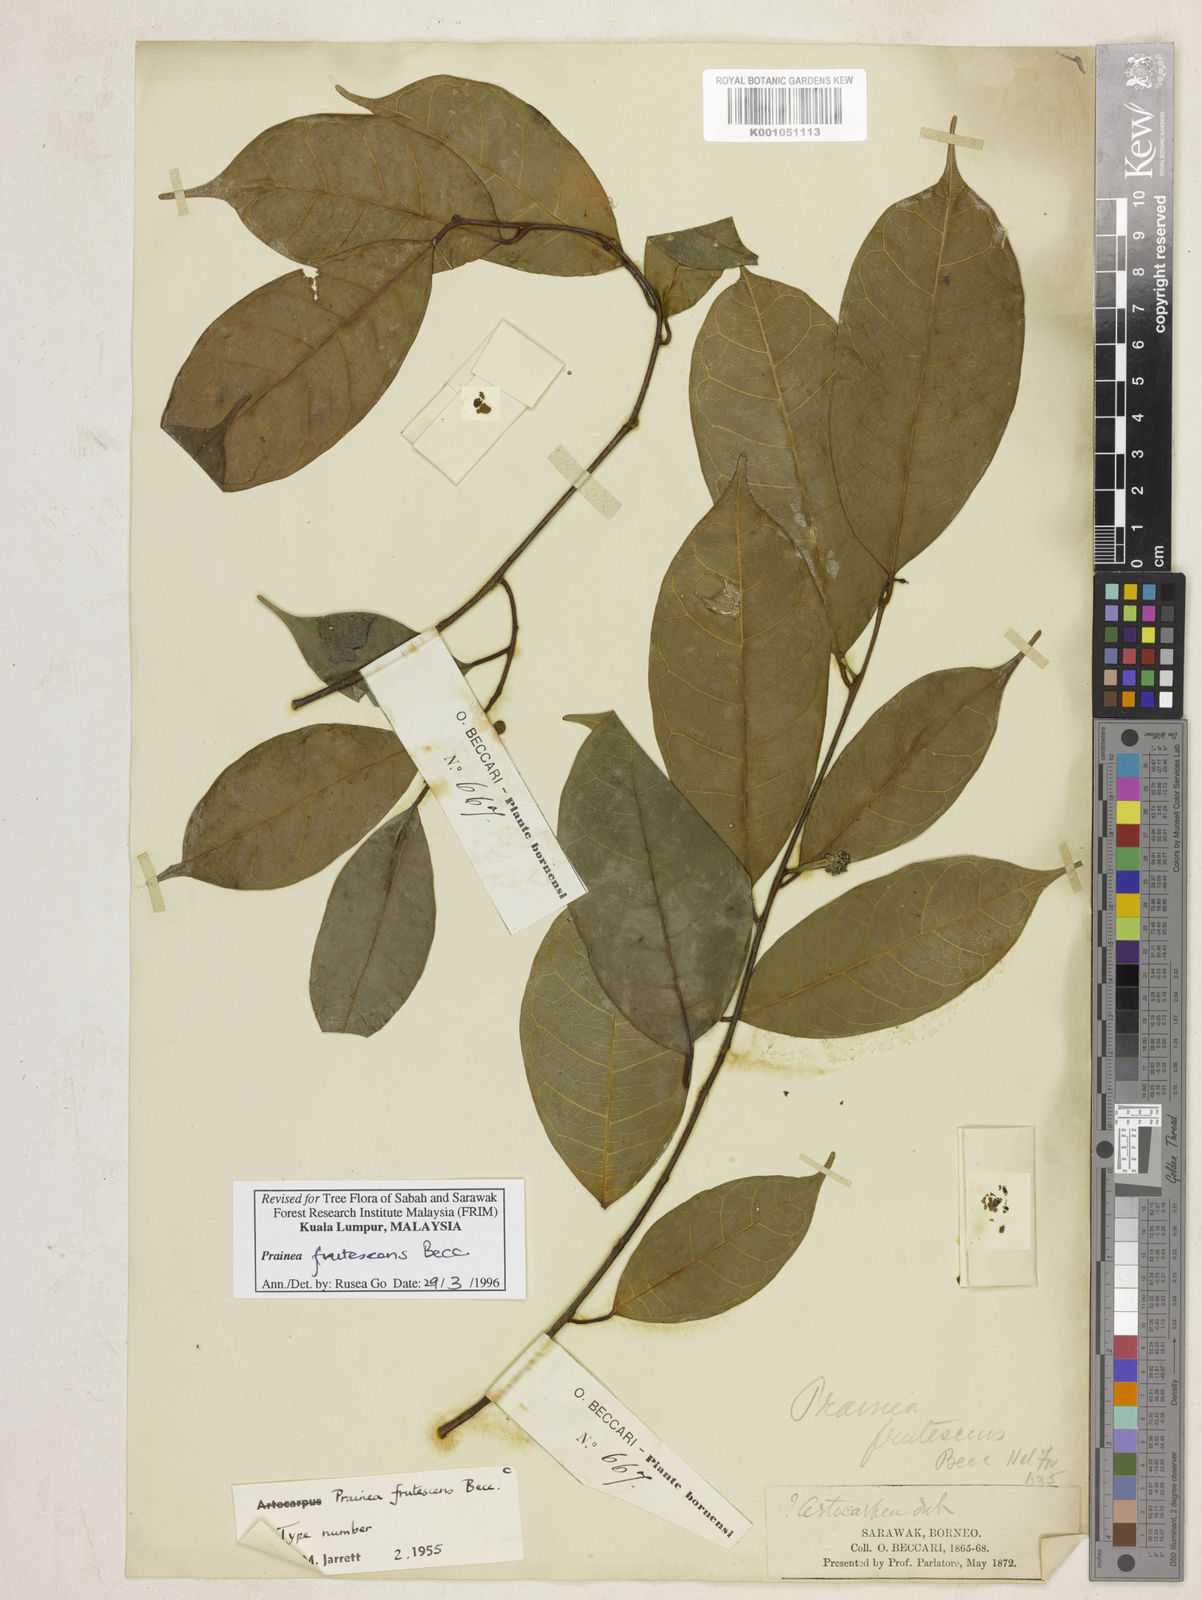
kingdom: Plantae
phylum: Tracheophyta
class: Magnoliopsida
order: Rosales
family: Moraceae
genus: Prainea
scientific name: Prainea scandens
